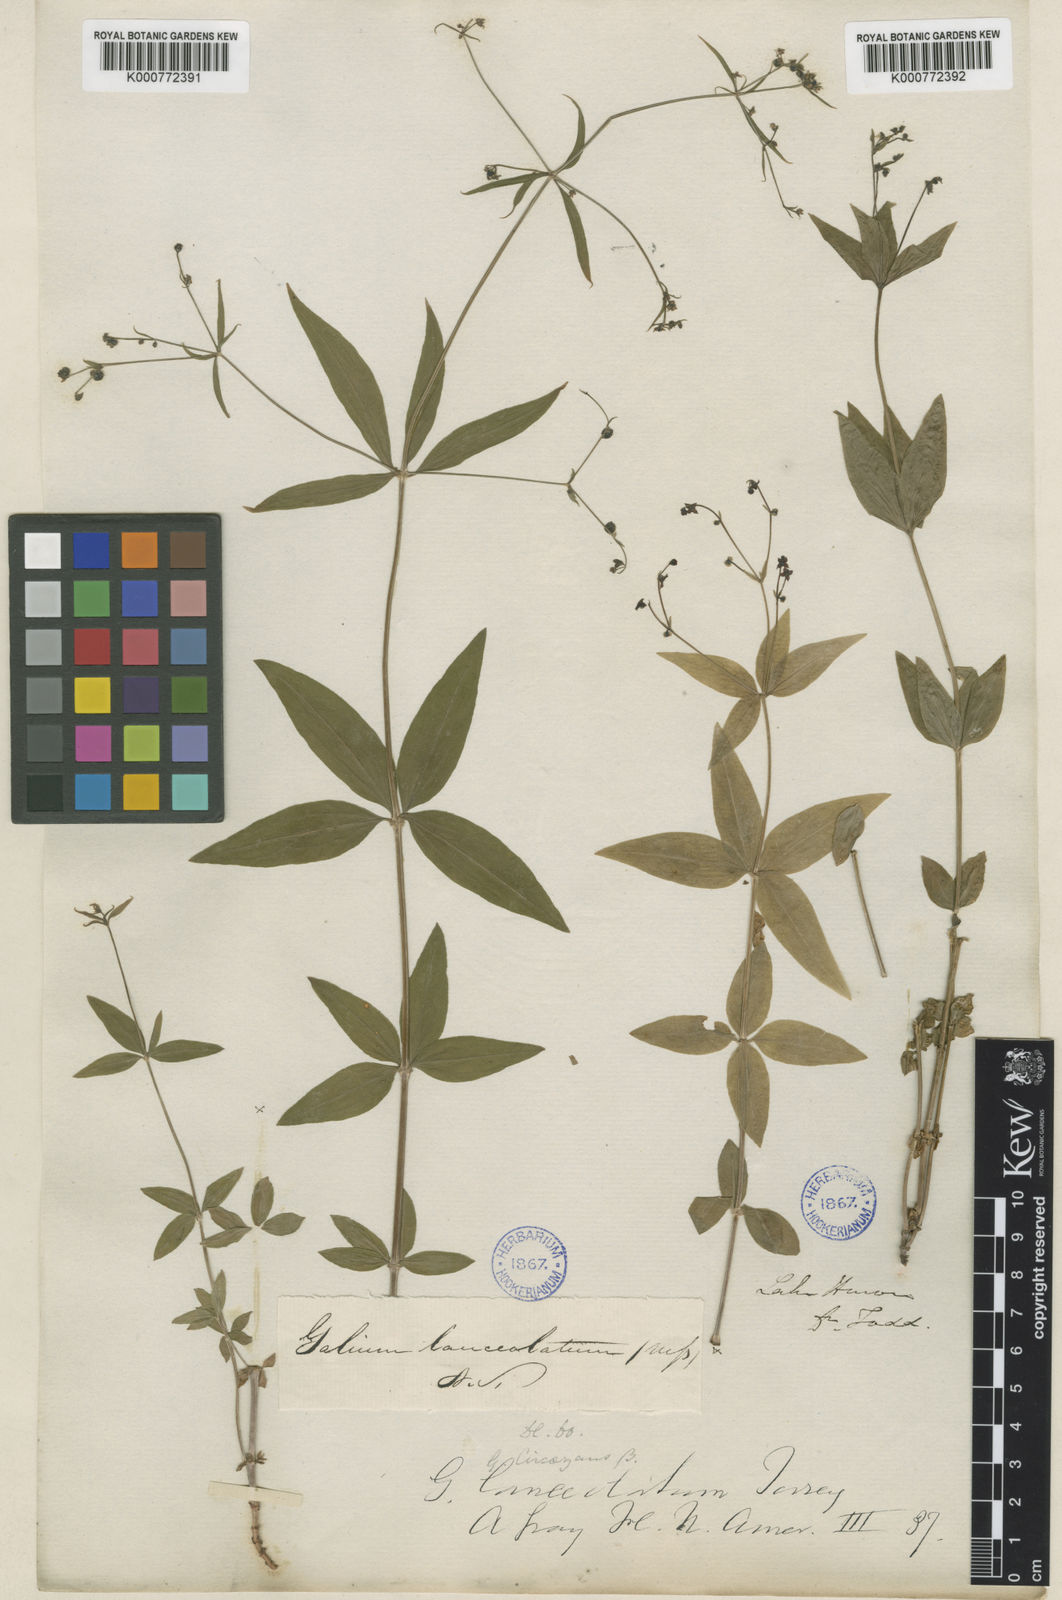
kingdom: Plantae
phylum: Tracheophyta
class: Magnoliopsida
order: Gentianales
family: Rubiaceae
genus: Galium
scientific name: Galium lanceolatum
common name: Lance-leaved wild licorice
